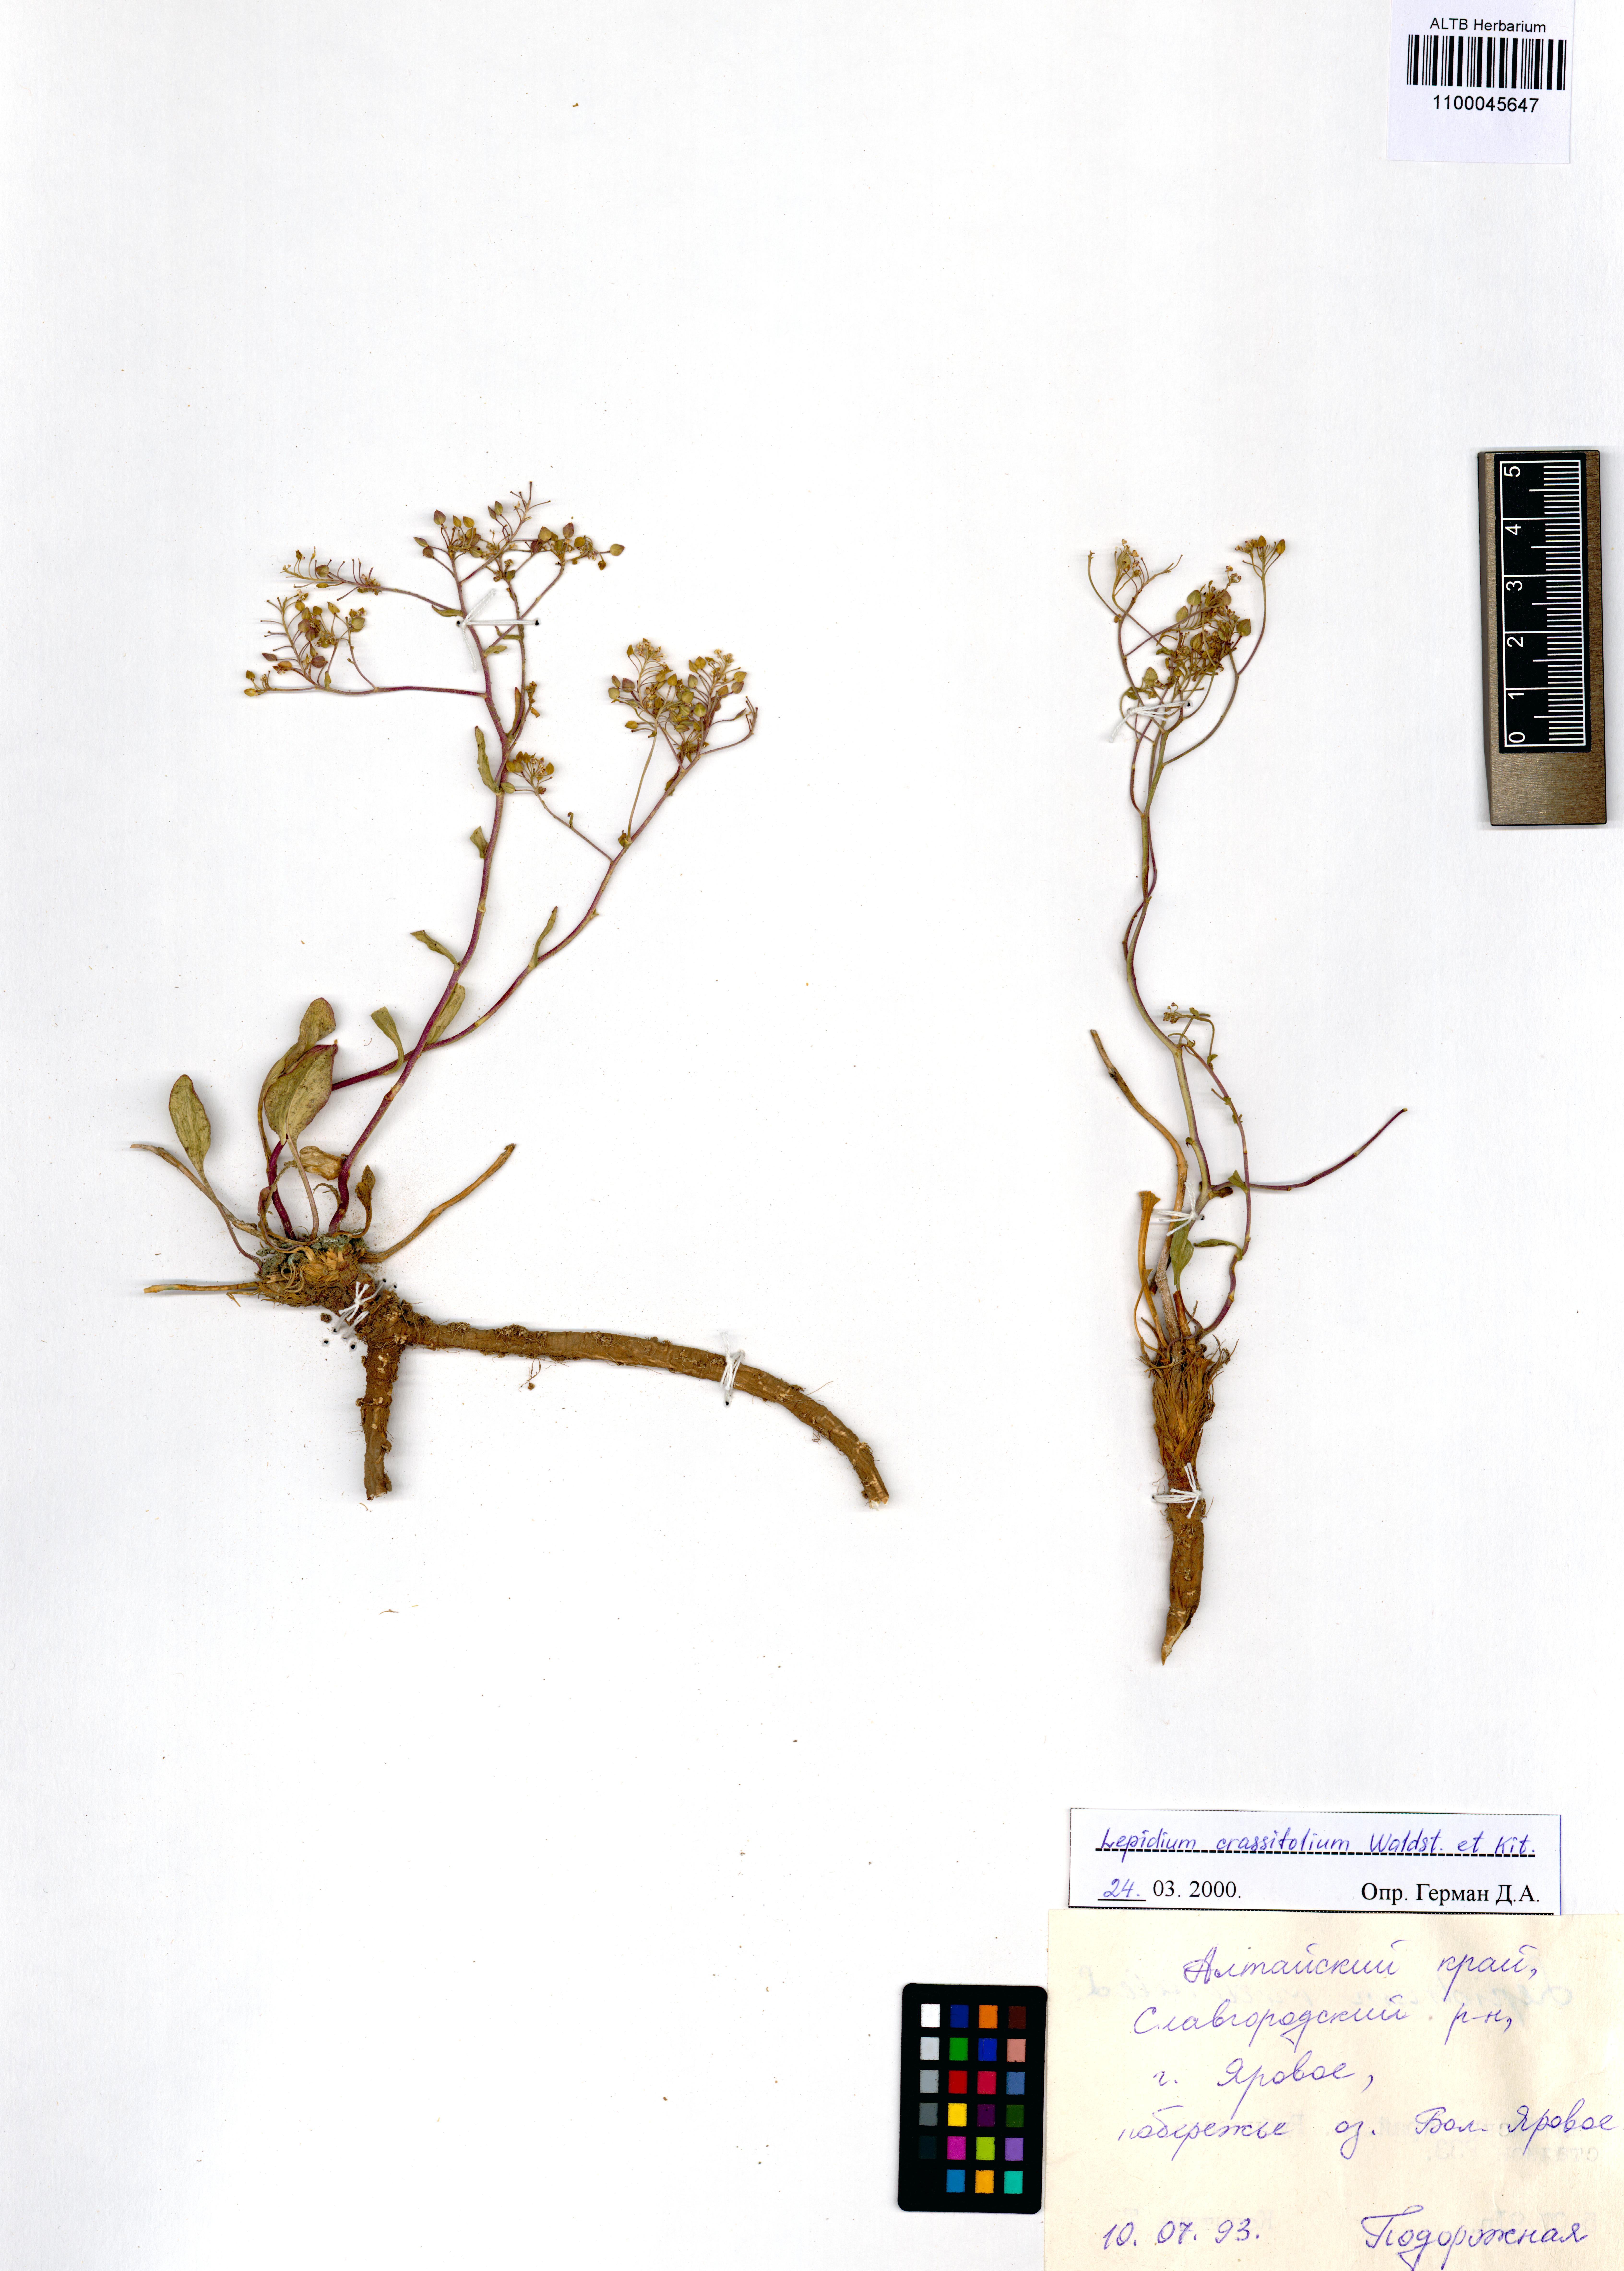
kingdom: Plantae
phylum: Tracheophyta
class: Magnoliopsida
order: Brassicales
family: Brassicaceae
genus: Lepidium
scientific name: Lepidium cartilagineum
